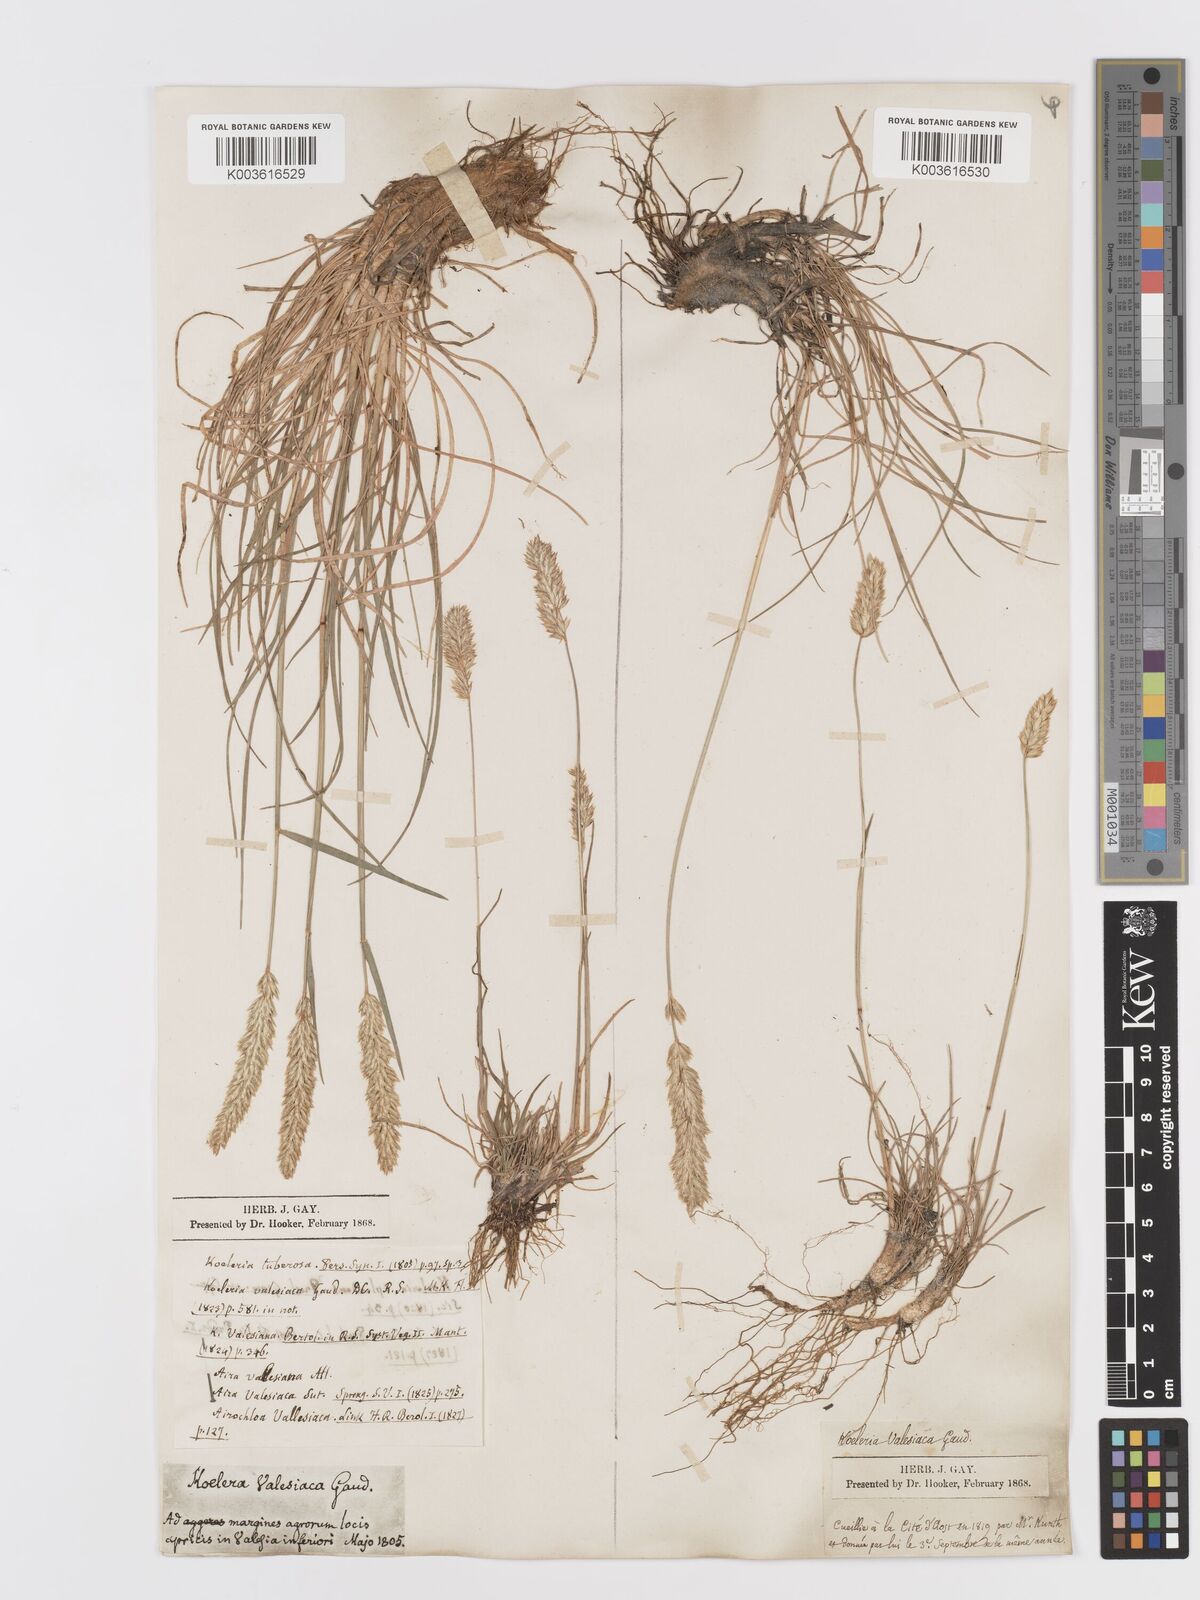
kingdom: Plantae
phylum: Tracheophyta
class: Liliopsida
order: Poales
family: Poaceae
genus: Koeleria
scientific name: Koeleria vallesiana
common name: Somerset hair-grass
